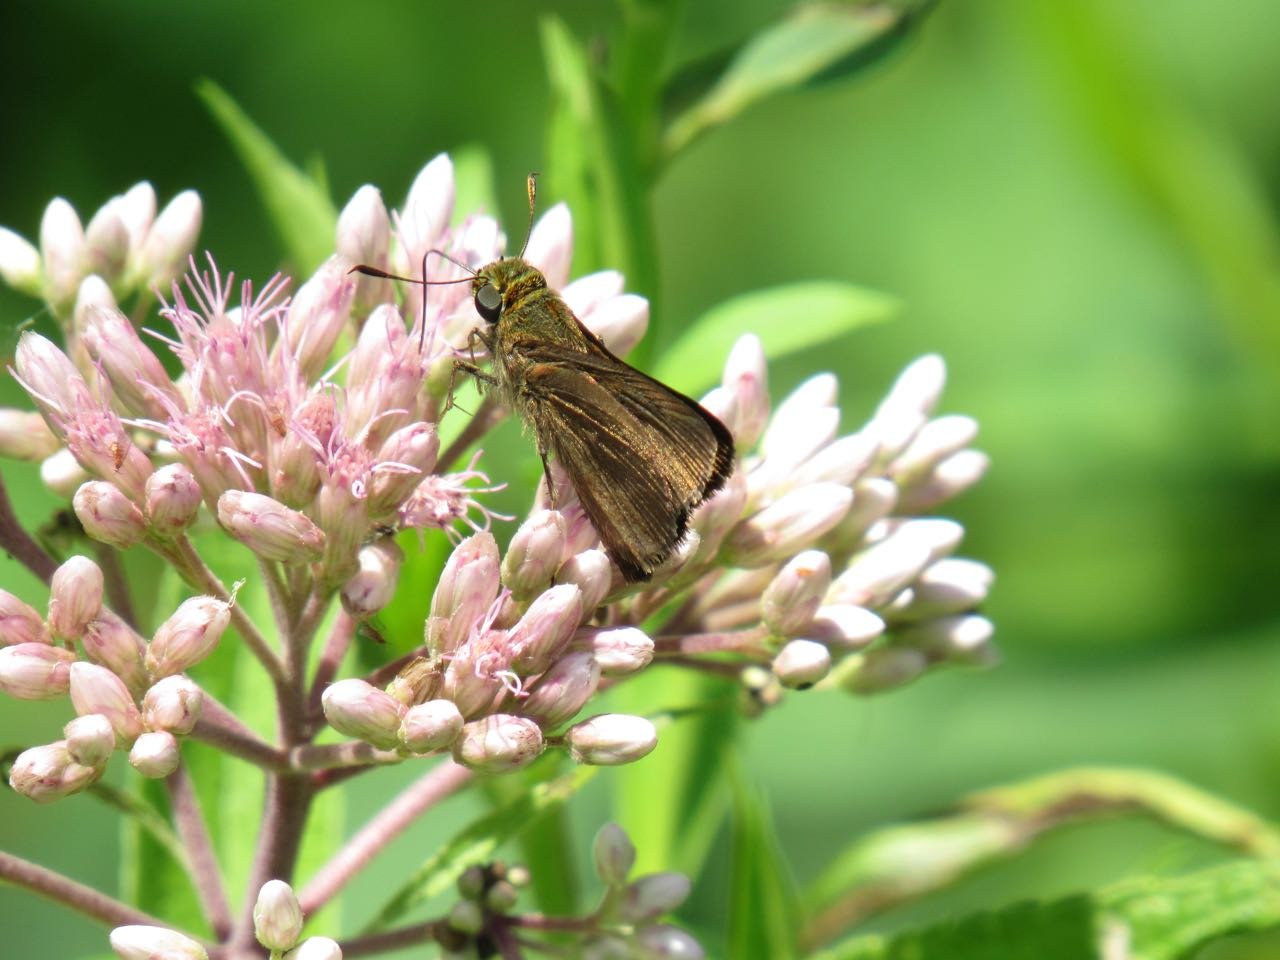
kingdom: Animalia
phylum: Arthropoda
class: Insecta
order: Lepidoptera
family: Hesperiidae
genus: Euphyes
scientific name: Euphyes vestris
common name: Dun Skipper
